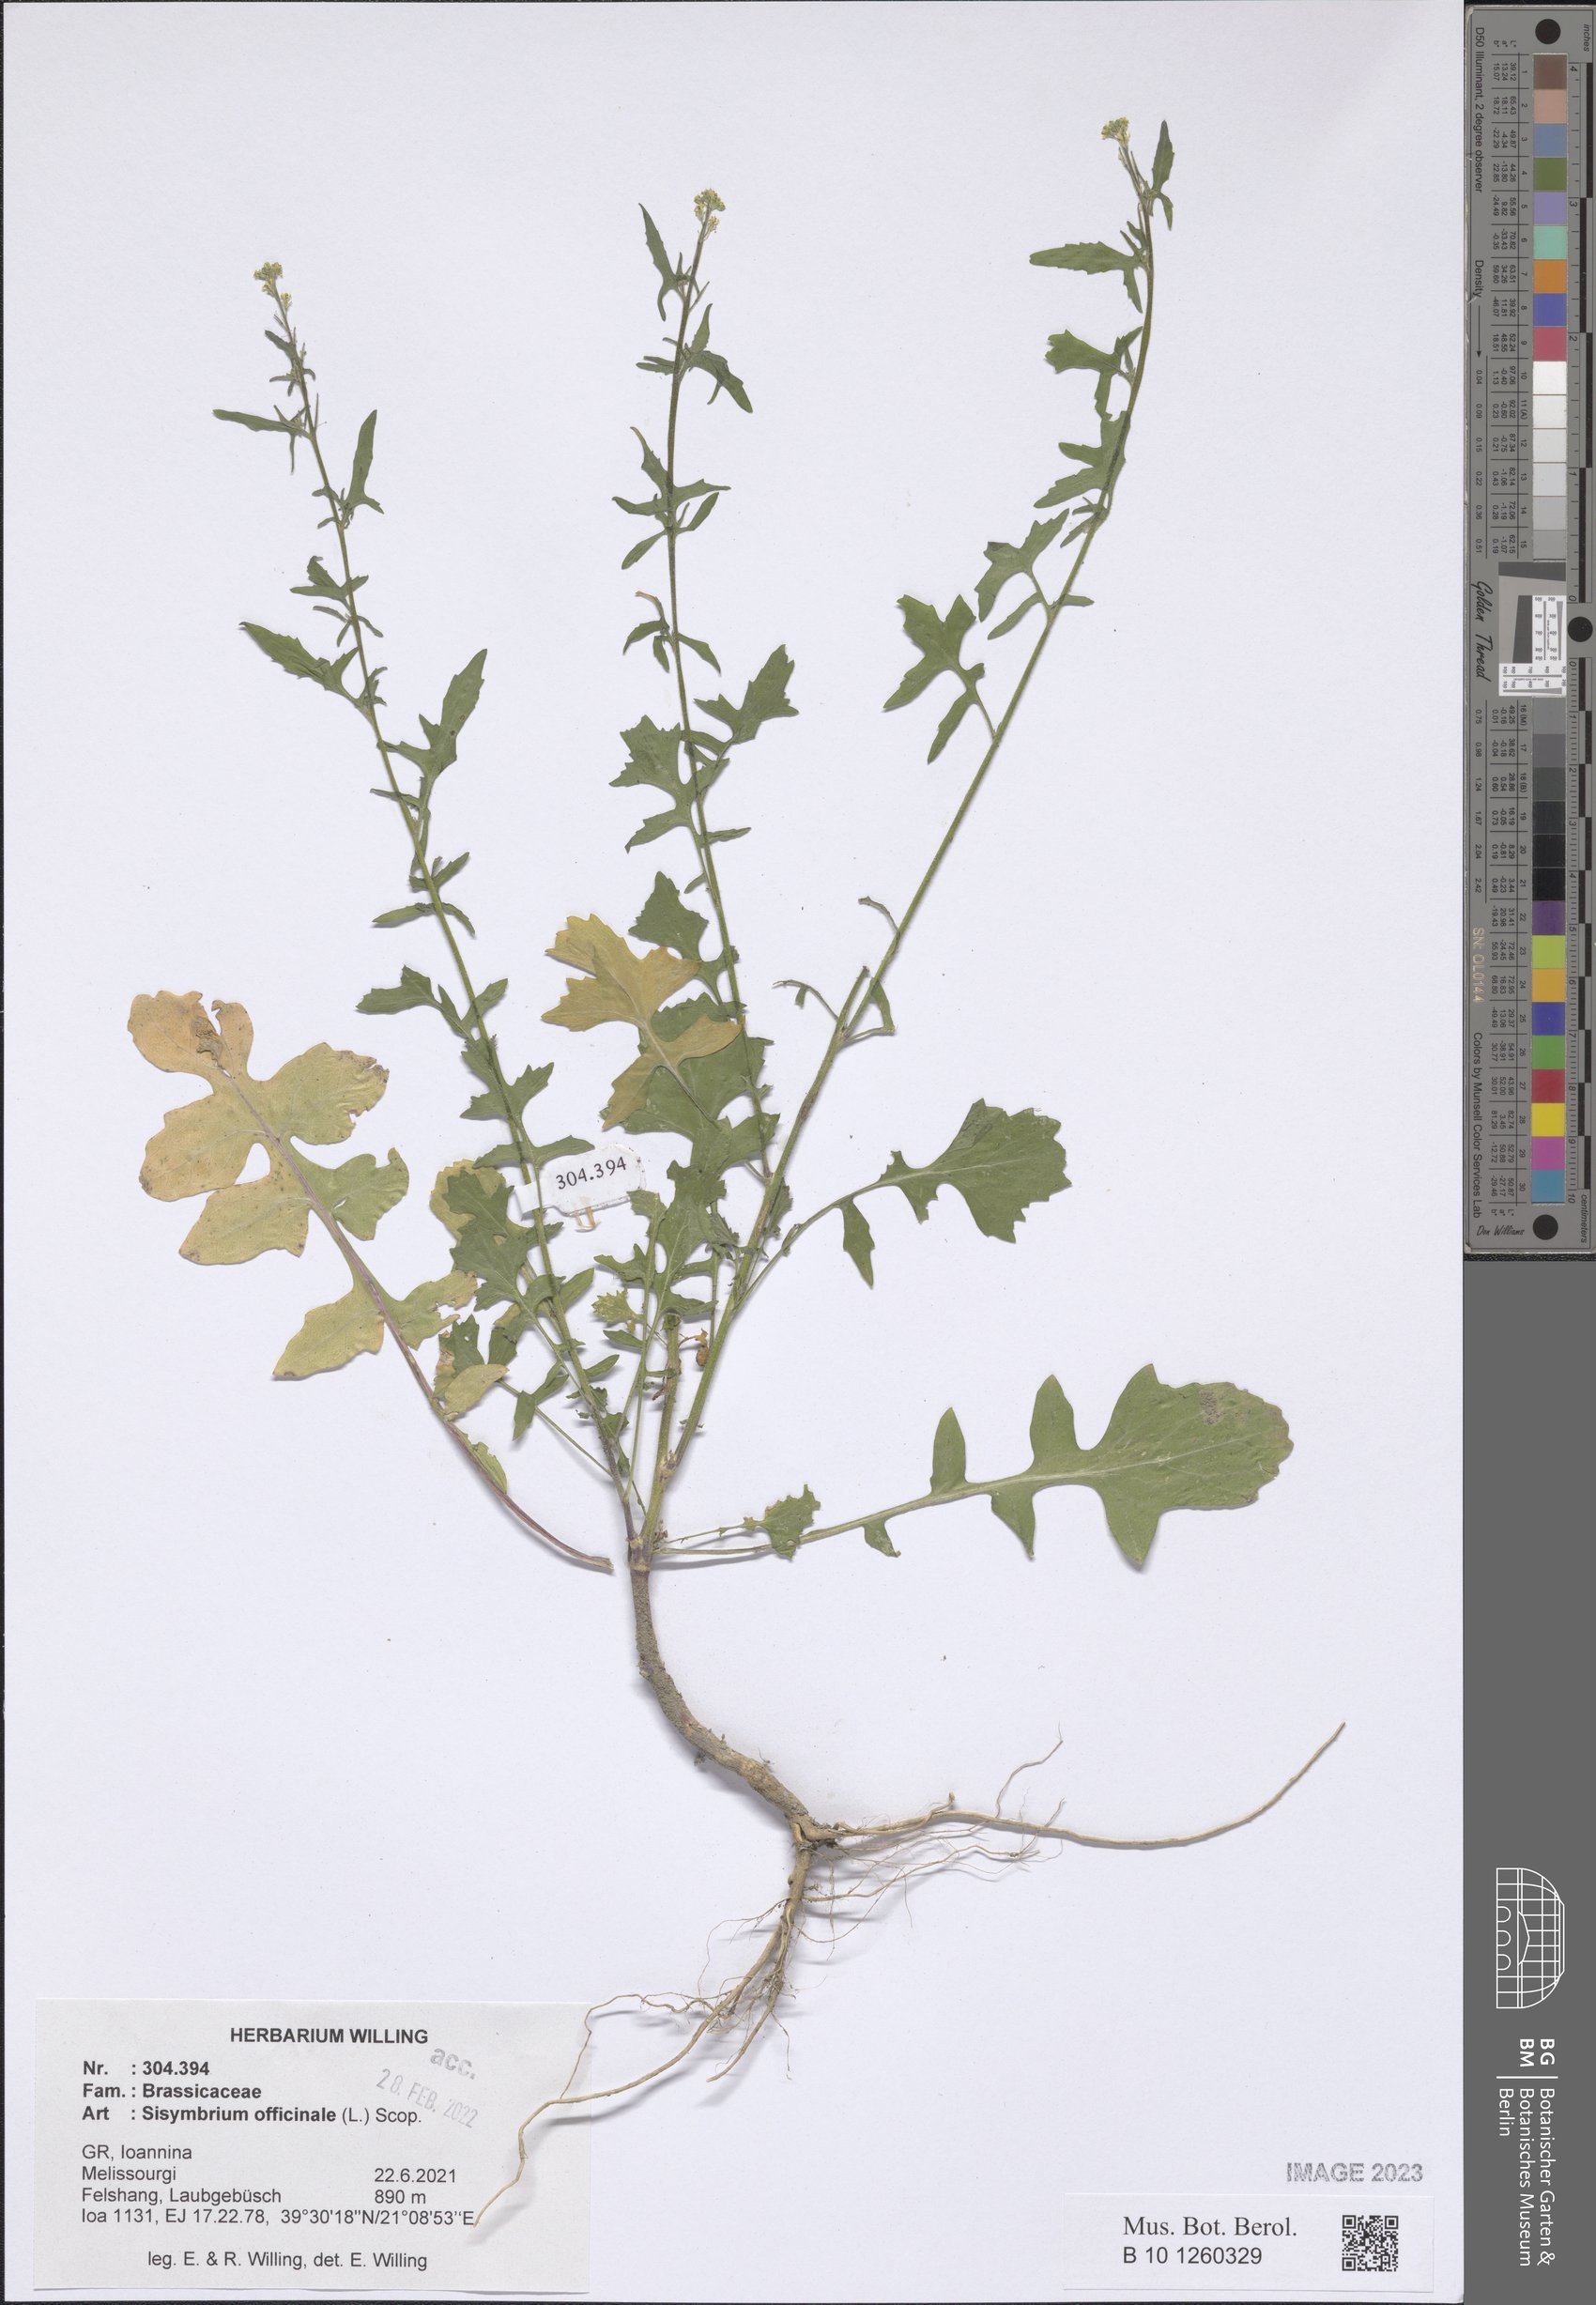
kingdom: Plantae
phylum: Tracheophyta
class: Magnoliopsida
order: Brassicales
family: Brassicaceae
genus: Sisymbrium
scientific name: Sisymbrium officinale
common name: Hedge mustard
